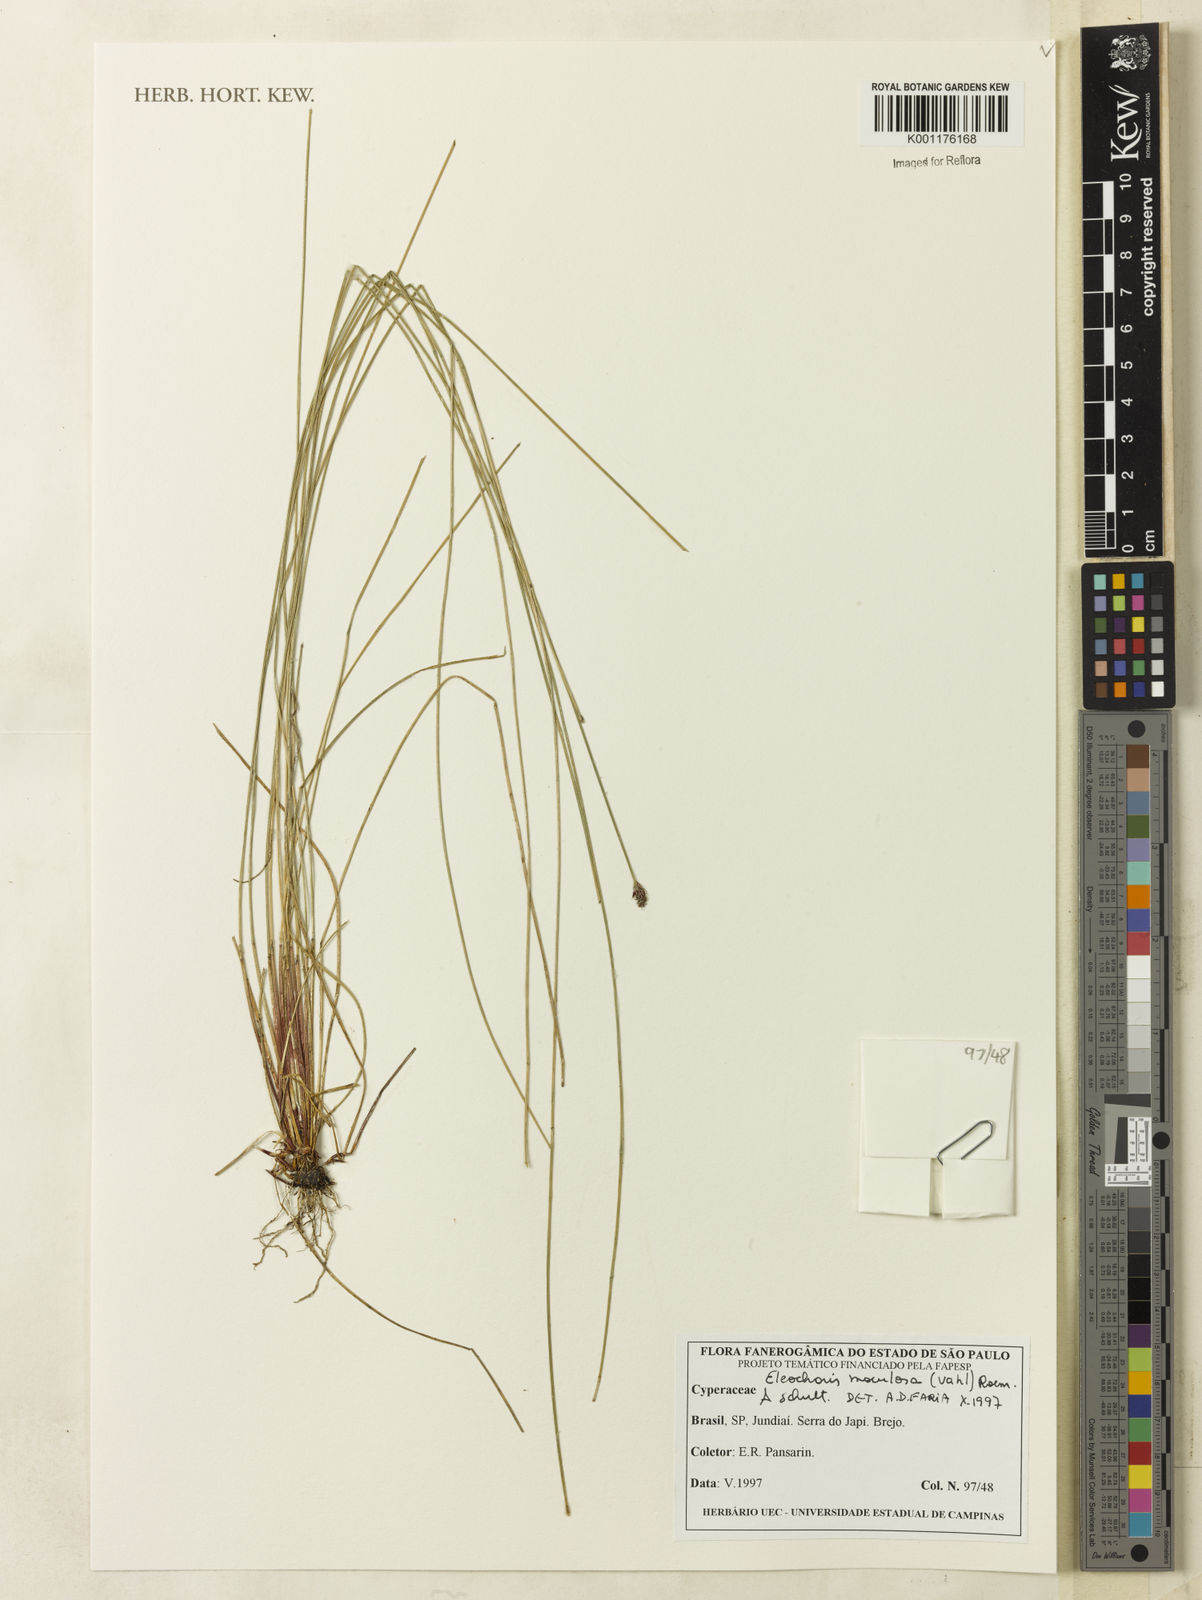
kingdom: Plantae
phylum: Tracheophyta
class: Liliopsida
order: Poales
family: Cyperaceae
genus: Eleocharis
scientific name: Eleocharis maculosa
